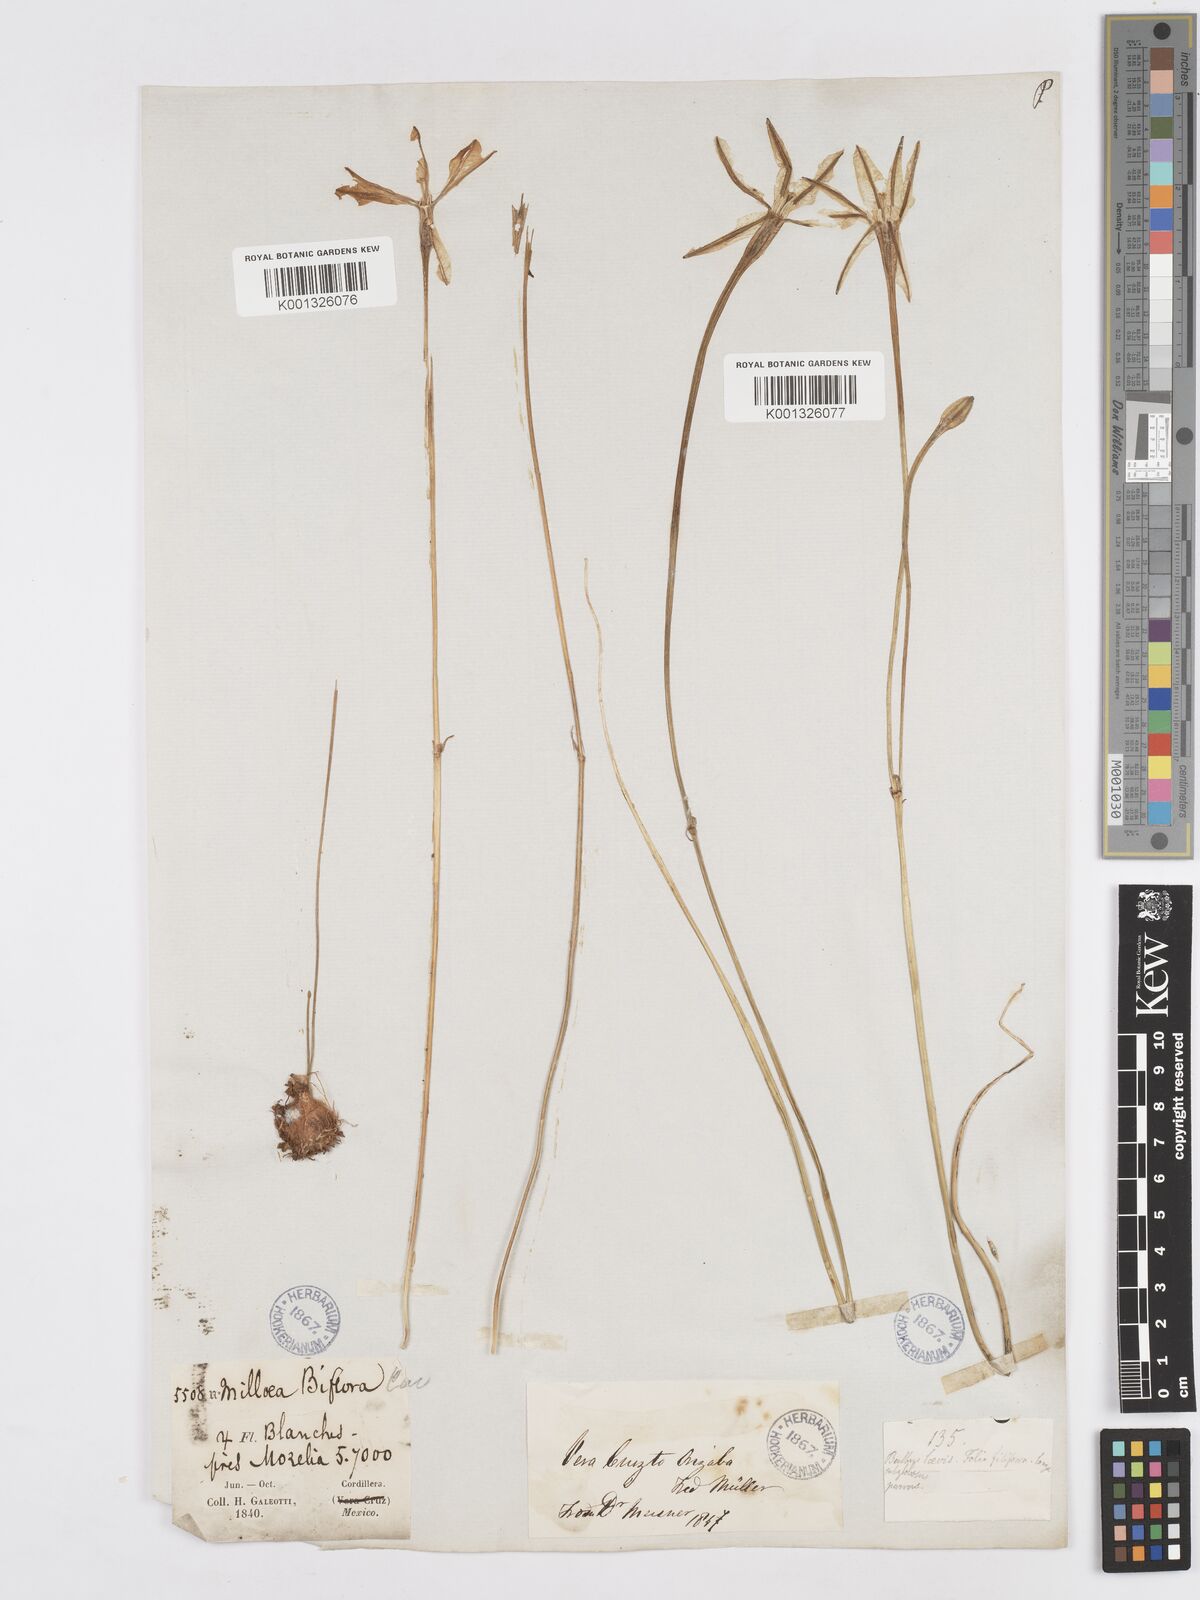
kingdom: Plantae
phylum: Tracheophyta
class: Liliopsida
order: Asparagales
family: Asparagaceae
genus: Milla
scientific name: Milla biflora
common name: Mexican-star
